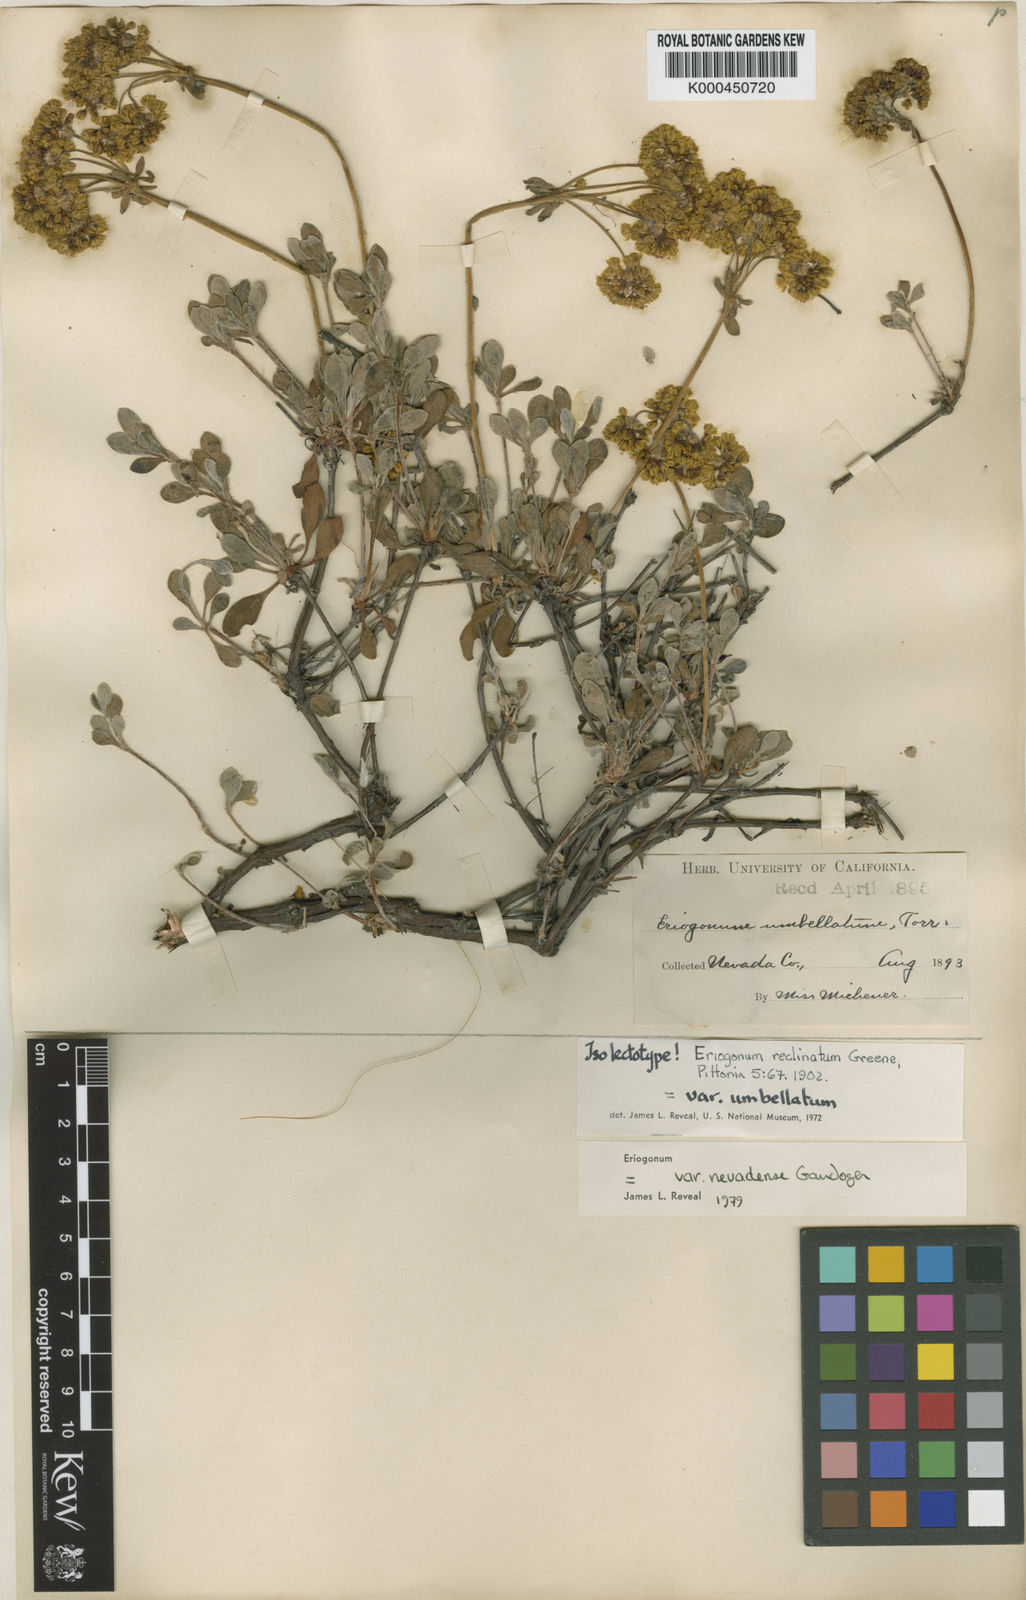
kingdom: Plantae
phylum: Tracheophyta
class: Magnoliopsida
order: Caryophyllales
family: Polygonaceae
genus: Eriogonum
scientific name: Eriogonum umbellatum
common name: Sulfur-buckwheat
